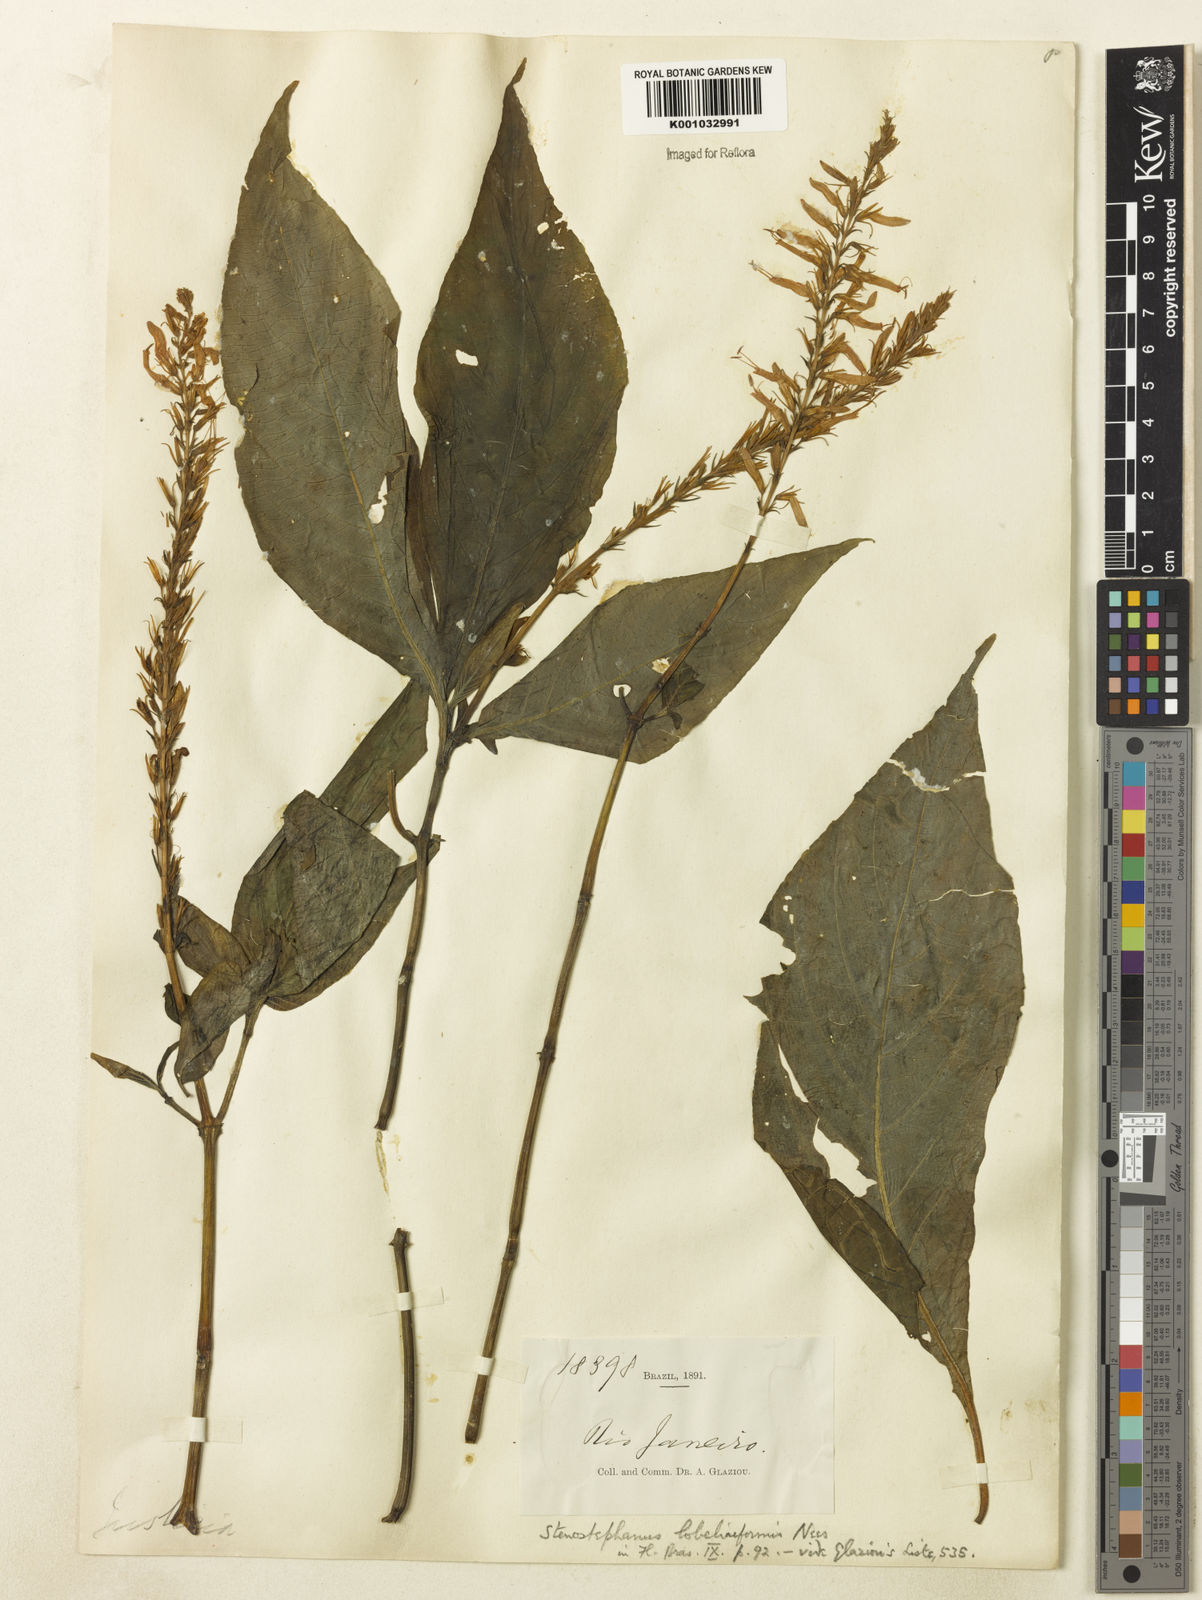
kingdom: Plantae
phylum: Tracheophyta
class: Magnoliopsida
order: Lamiales
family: Acanthaceae
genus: Stenostephanus
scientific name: Stenostephanus lobeliiformis
